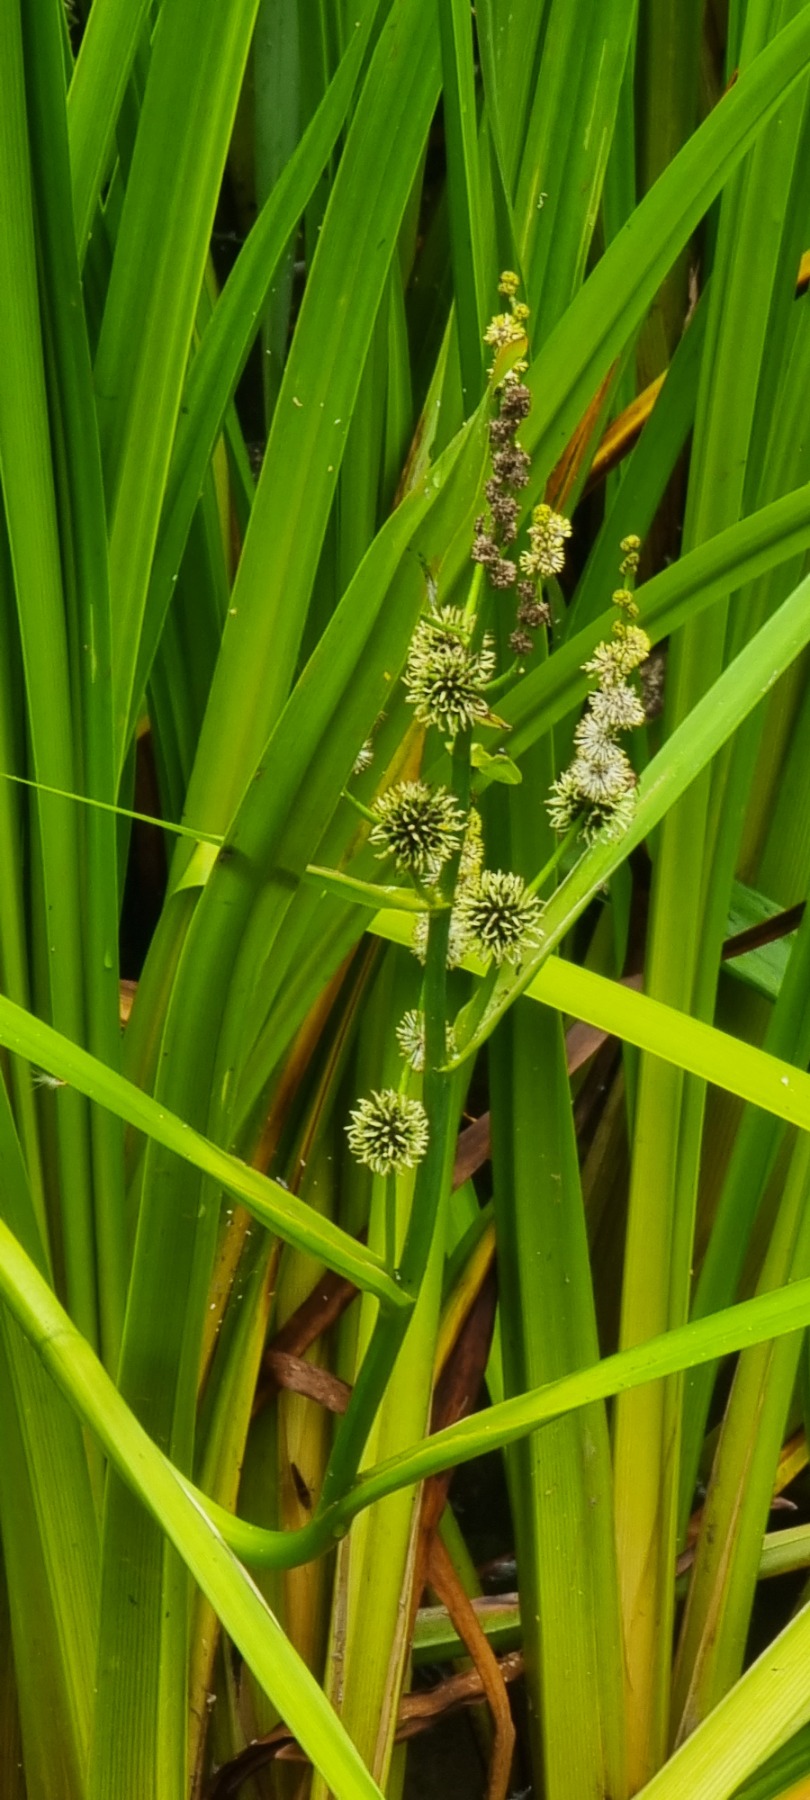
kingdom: Plantae
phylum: Tracheophyta
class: Liliopsida
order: Poales
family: Typhaceae
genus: Sparganium
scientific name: Sparganium erectum
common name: Grenet pindsvineknop
